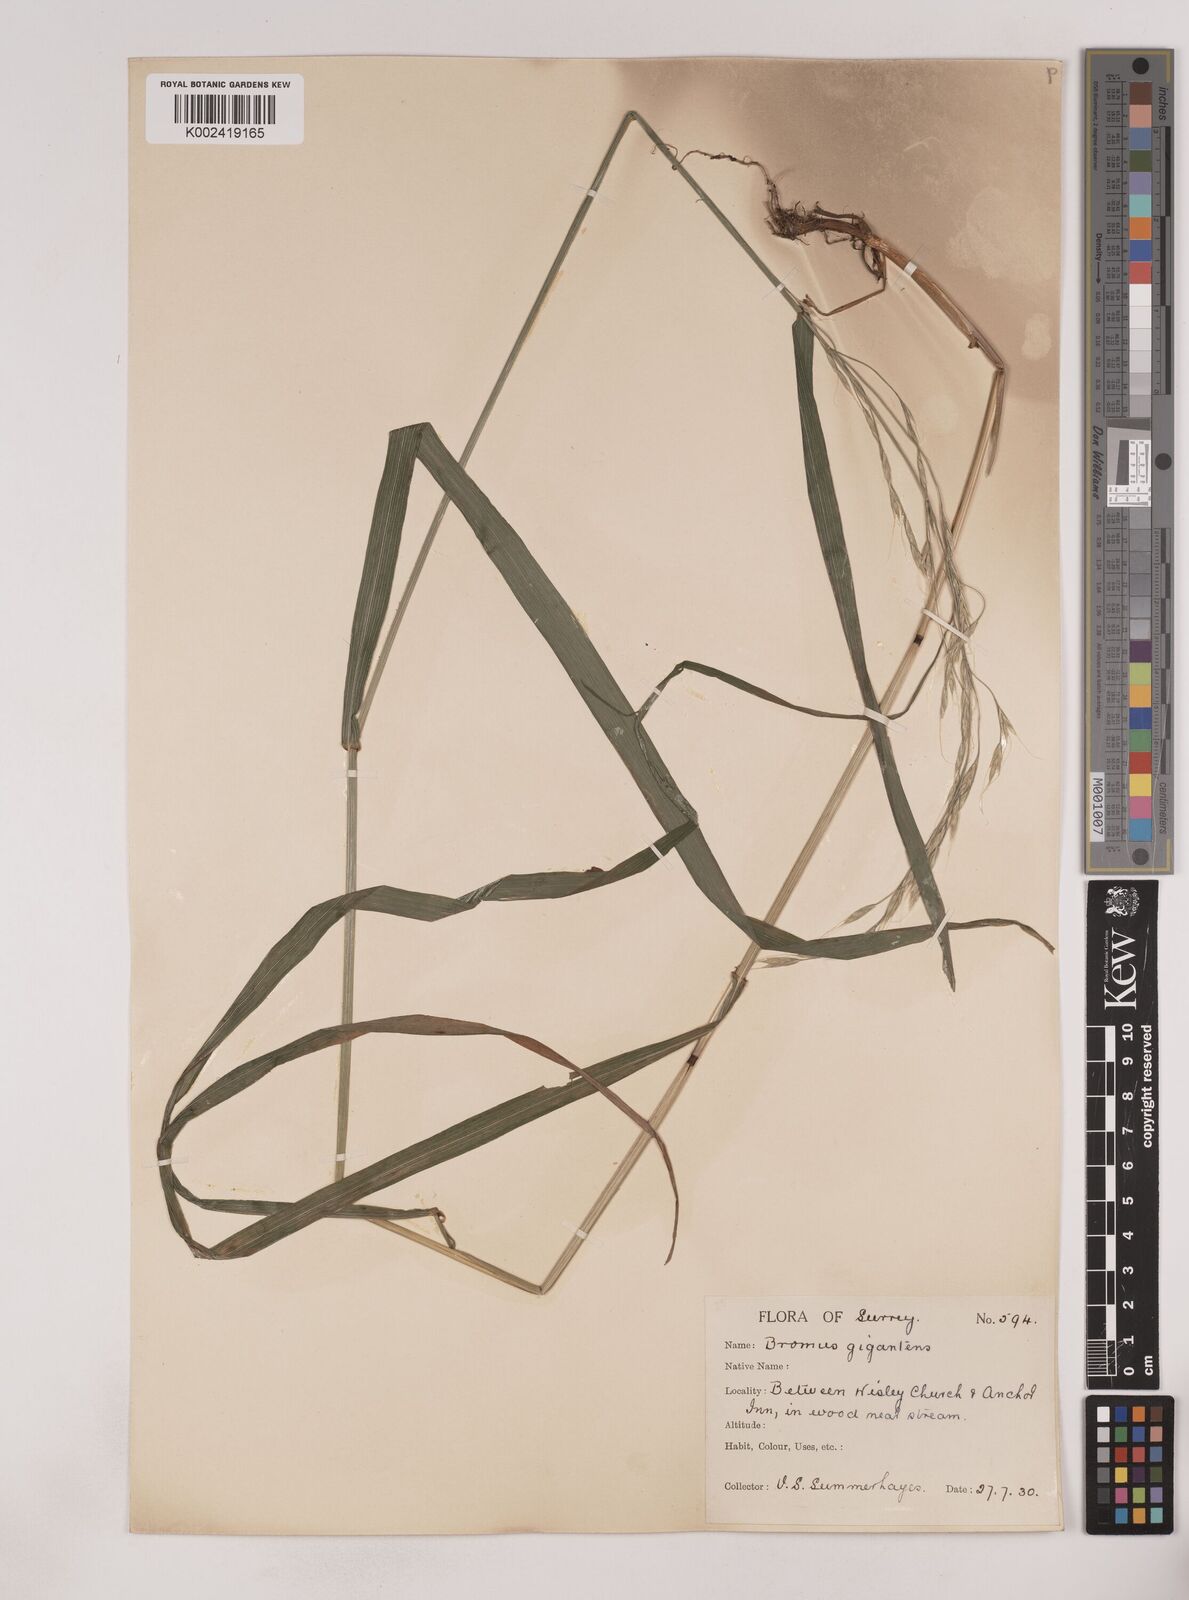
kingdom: Plantae
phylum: Tracheophyta
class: Liliopsida
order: Poales
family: Poaceae
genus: Lolium
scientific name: Lolium giganteum
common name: Giant fescue
